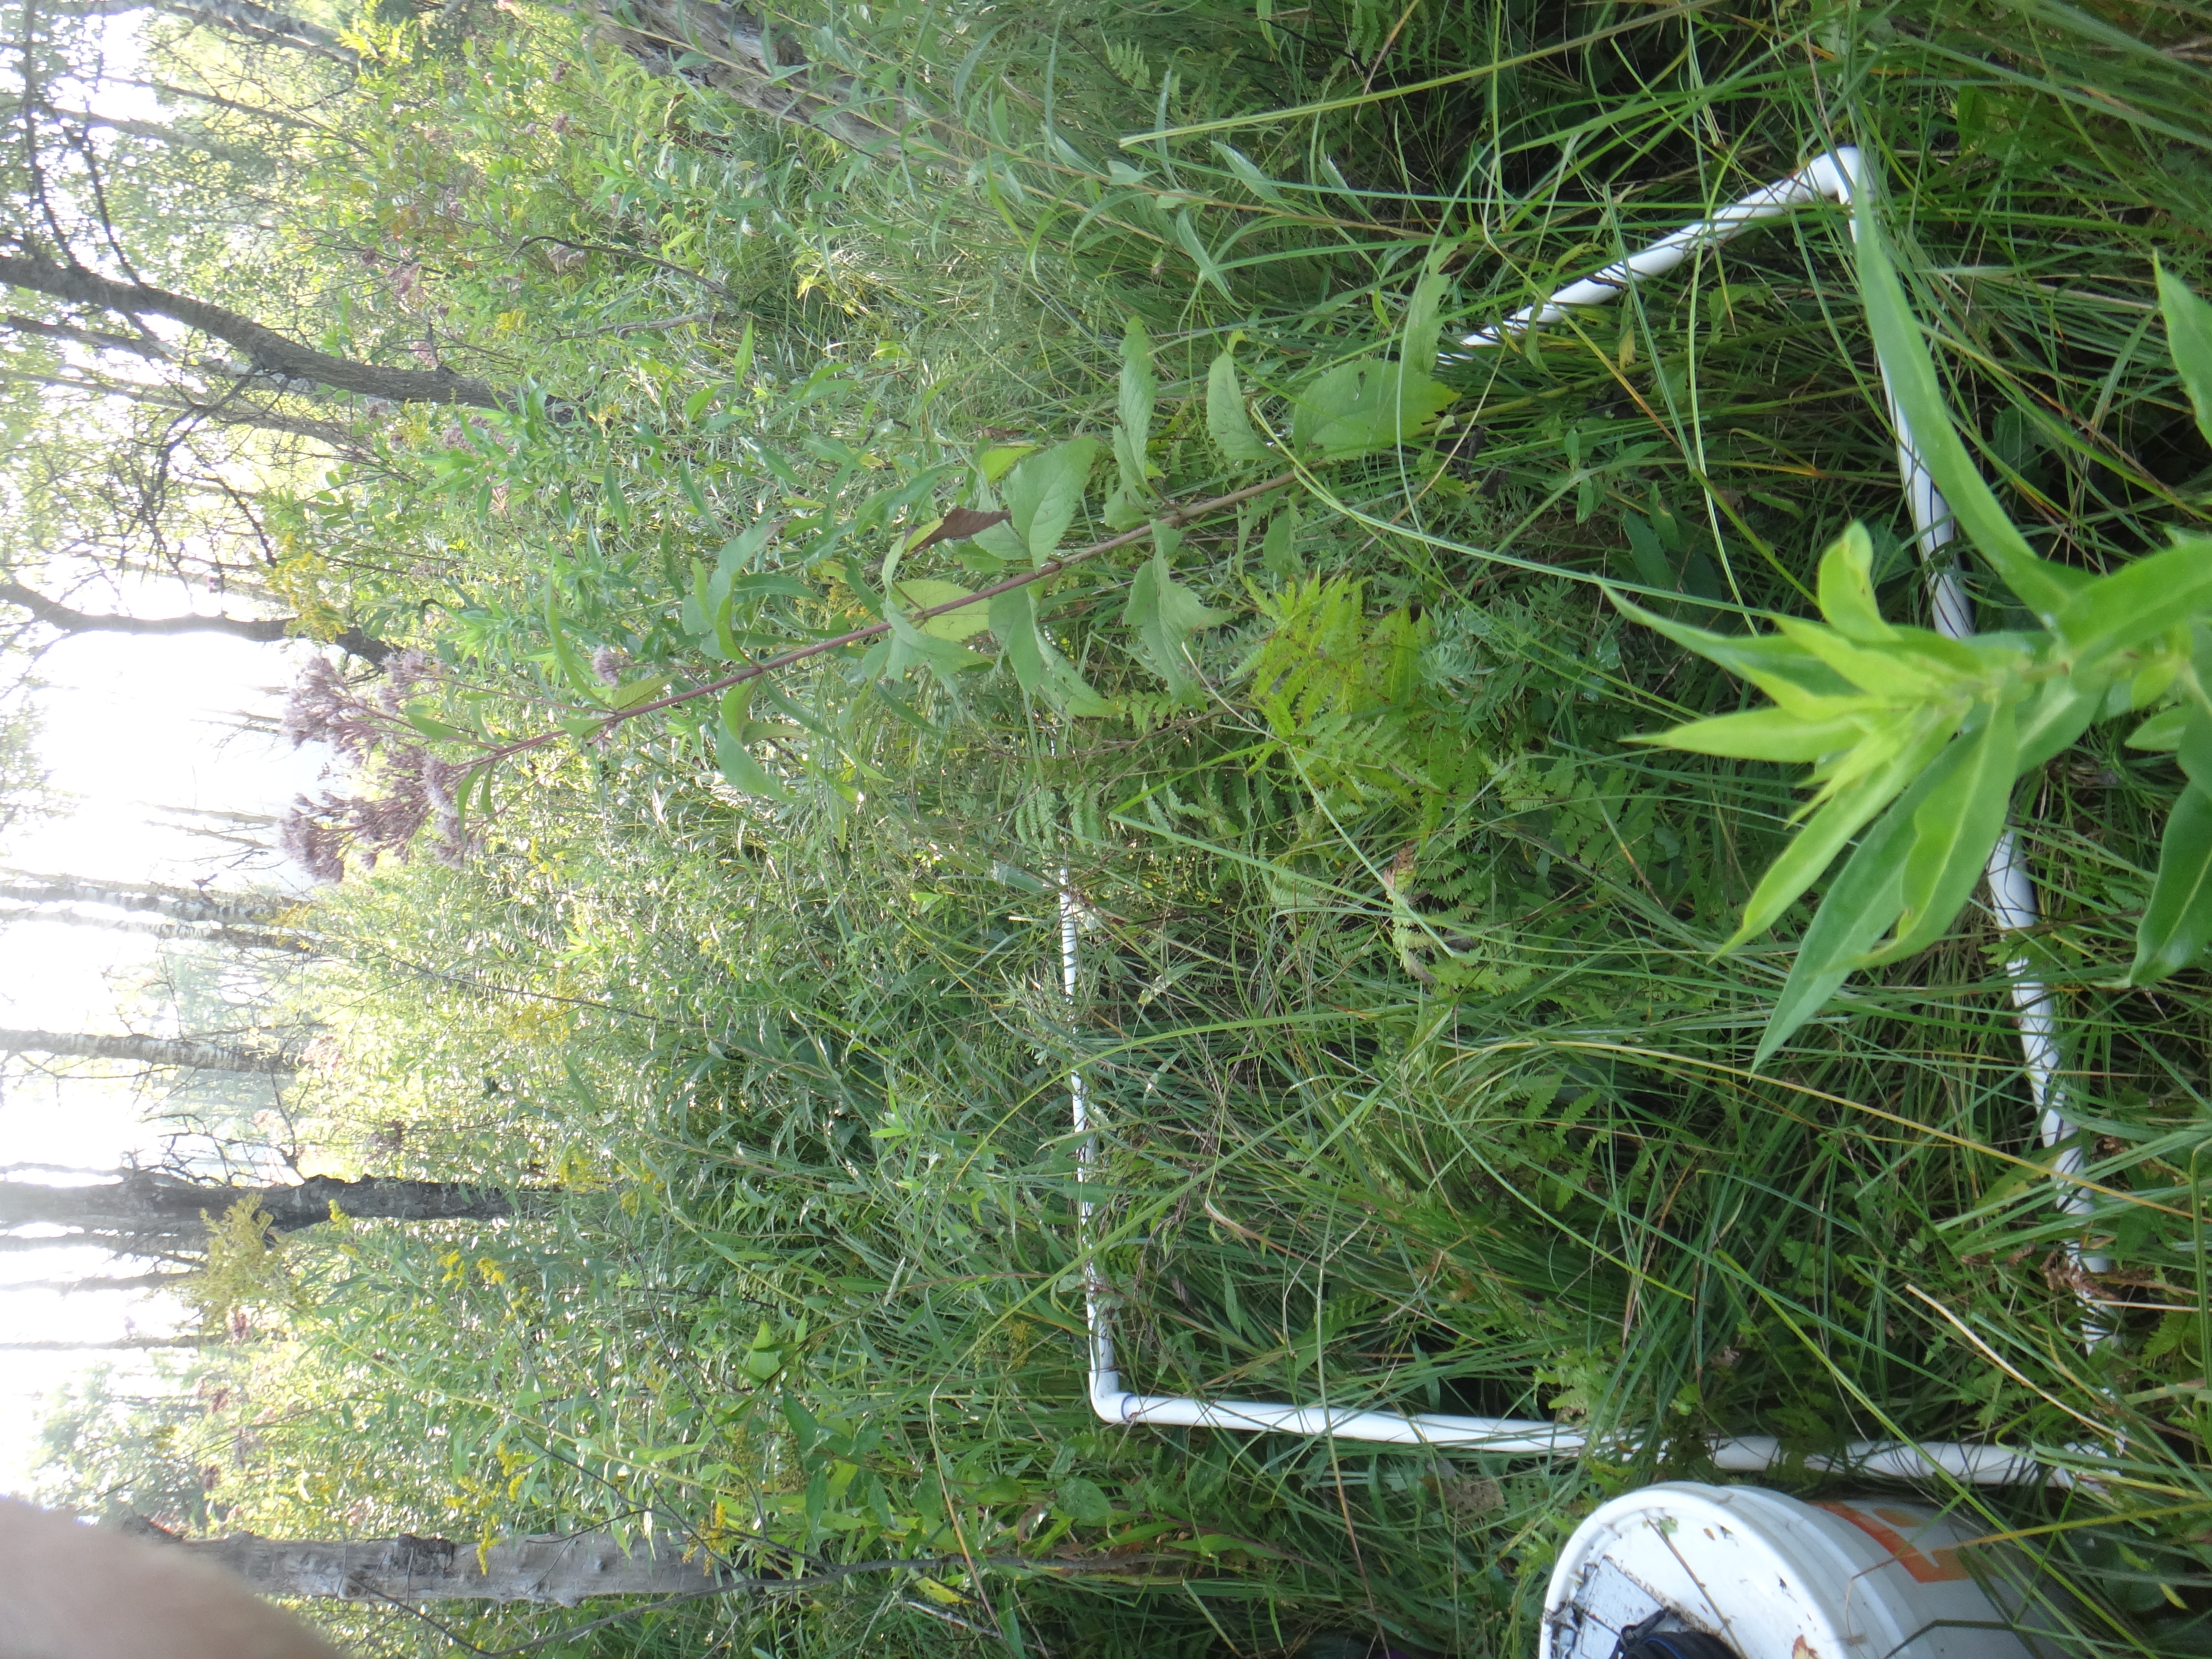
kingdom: Plantae
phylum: Tracheophyta
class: Magnoliopsida
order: Asterales
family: Asteraceae
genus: Symphyotrichum
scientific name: Symphyotrichum firmum
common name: Shining aster
